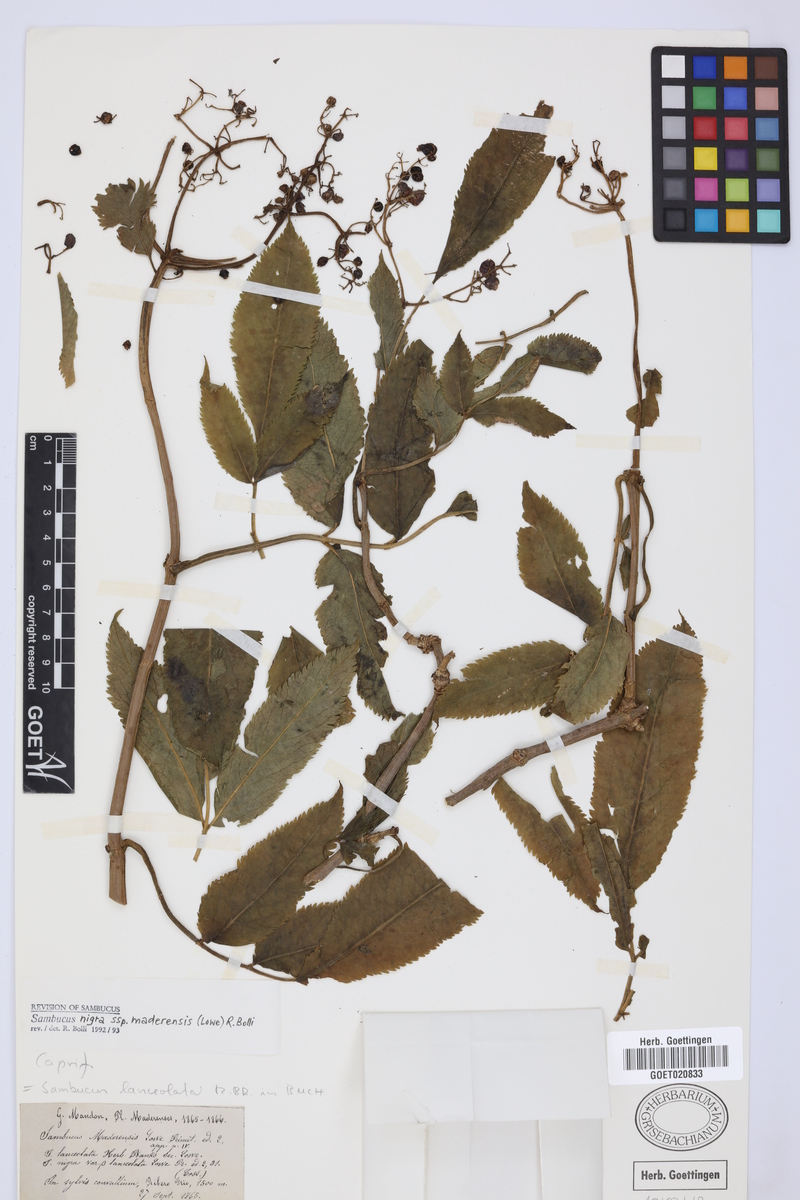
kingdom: Plantae
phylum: Tracheophyta
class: Magnoliopsida
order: Dipsacales
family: Viburnaceae
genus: Sambucus
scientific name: Sambucus lanceolata
